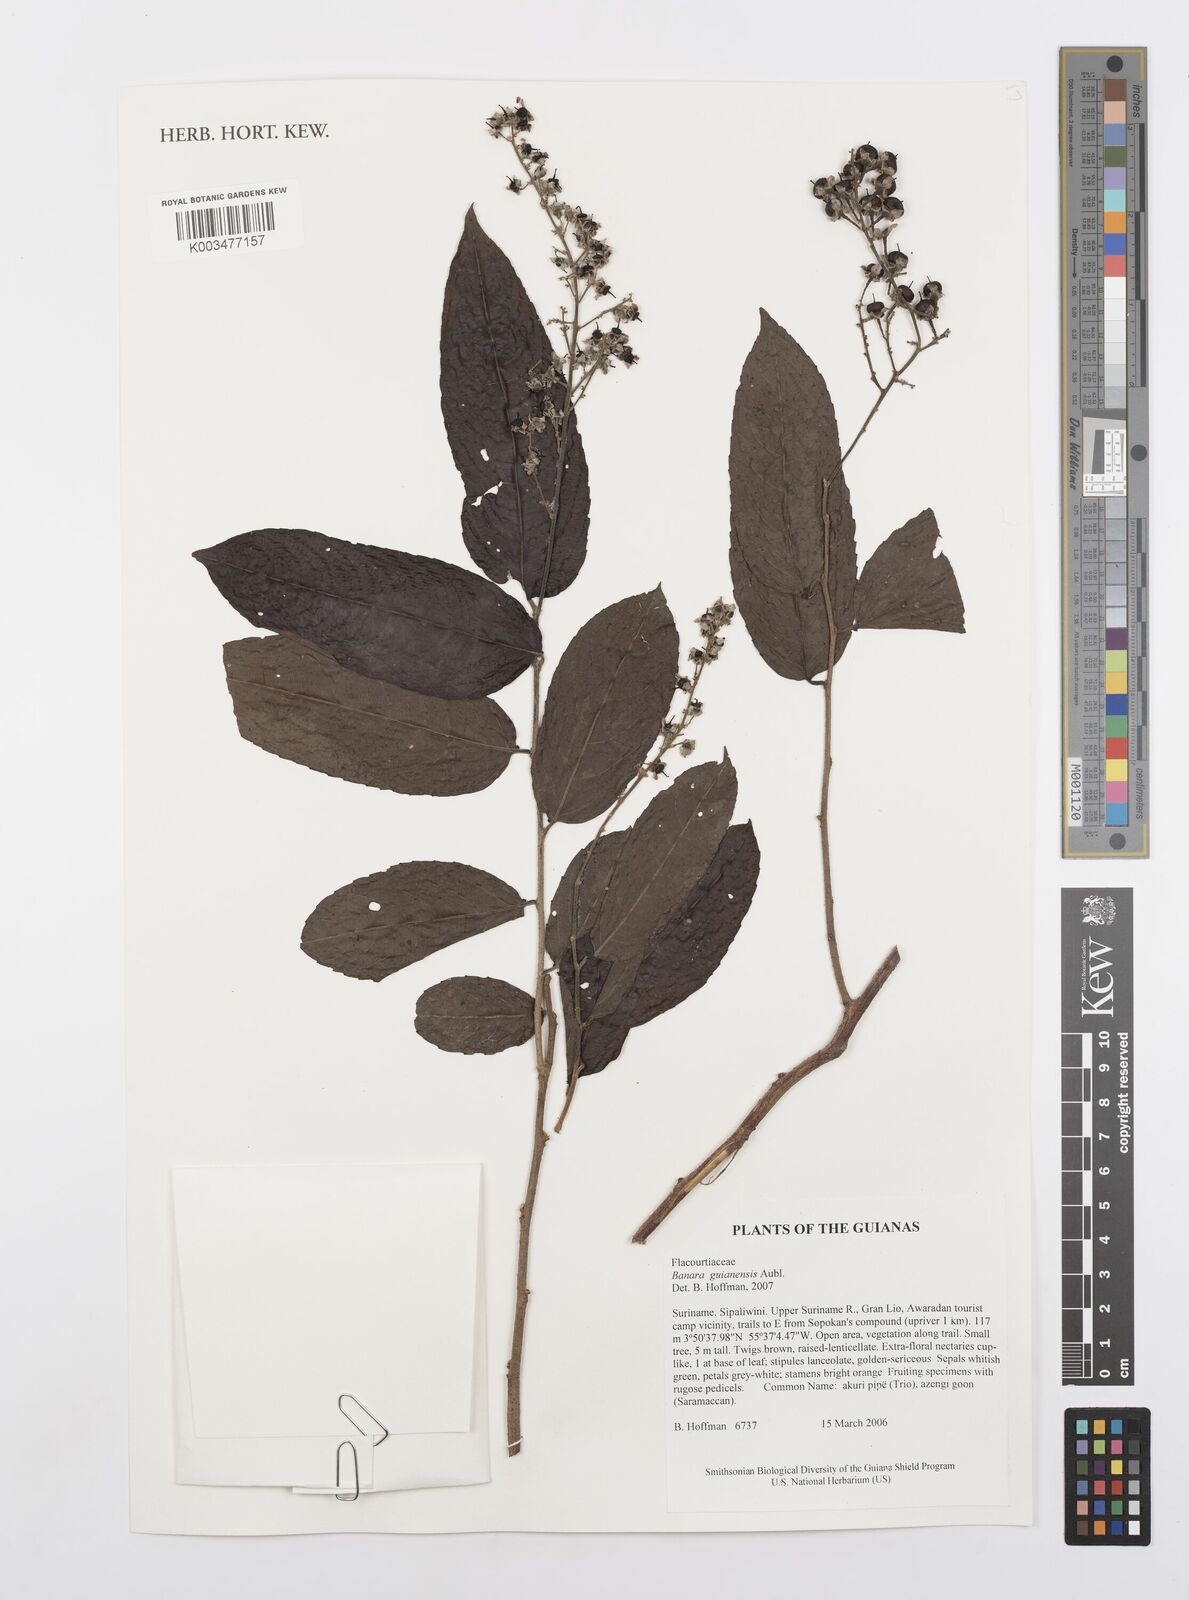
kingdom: Plantae
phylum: Tracheophyta
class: Magnoliopsida
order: Malpighiales
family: Salicaceae
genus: Banara
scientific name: Banara guianensis
